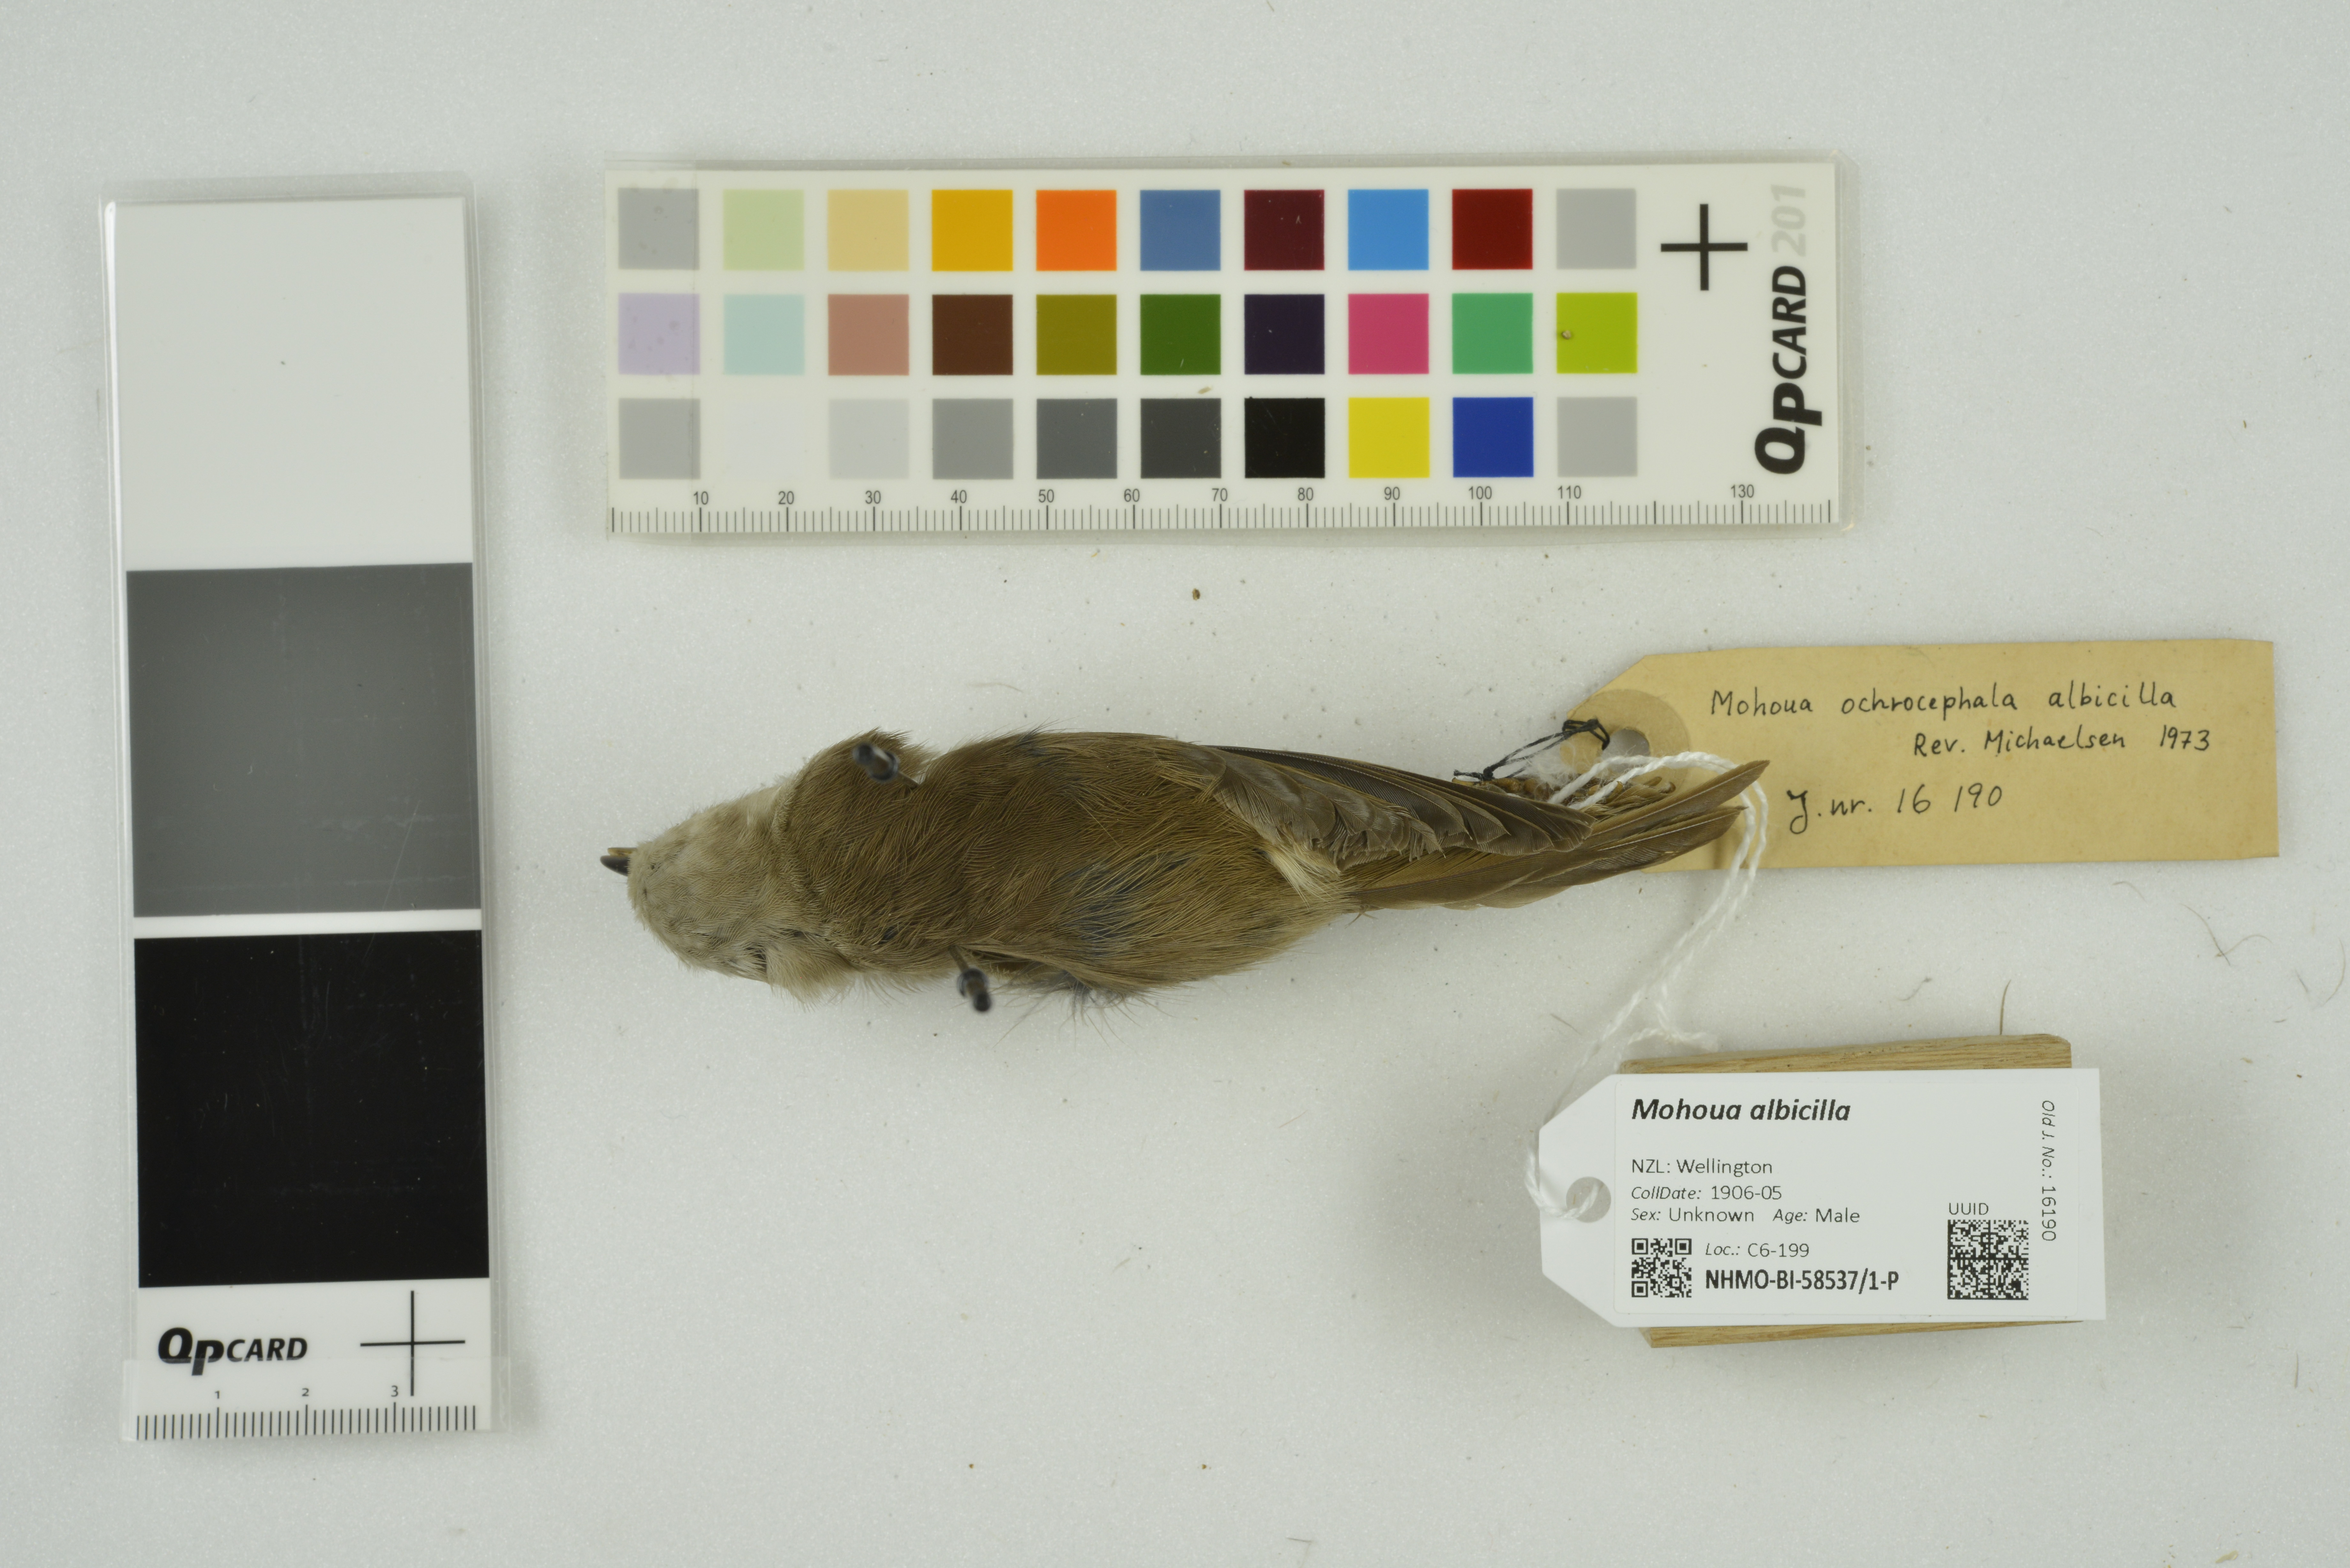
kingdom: Animalia
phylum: Chordata
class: Aves
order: Passeriformes
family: Acanthizidae
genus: Mohoua
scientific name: Mohoua albicilla
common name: Whitehead
